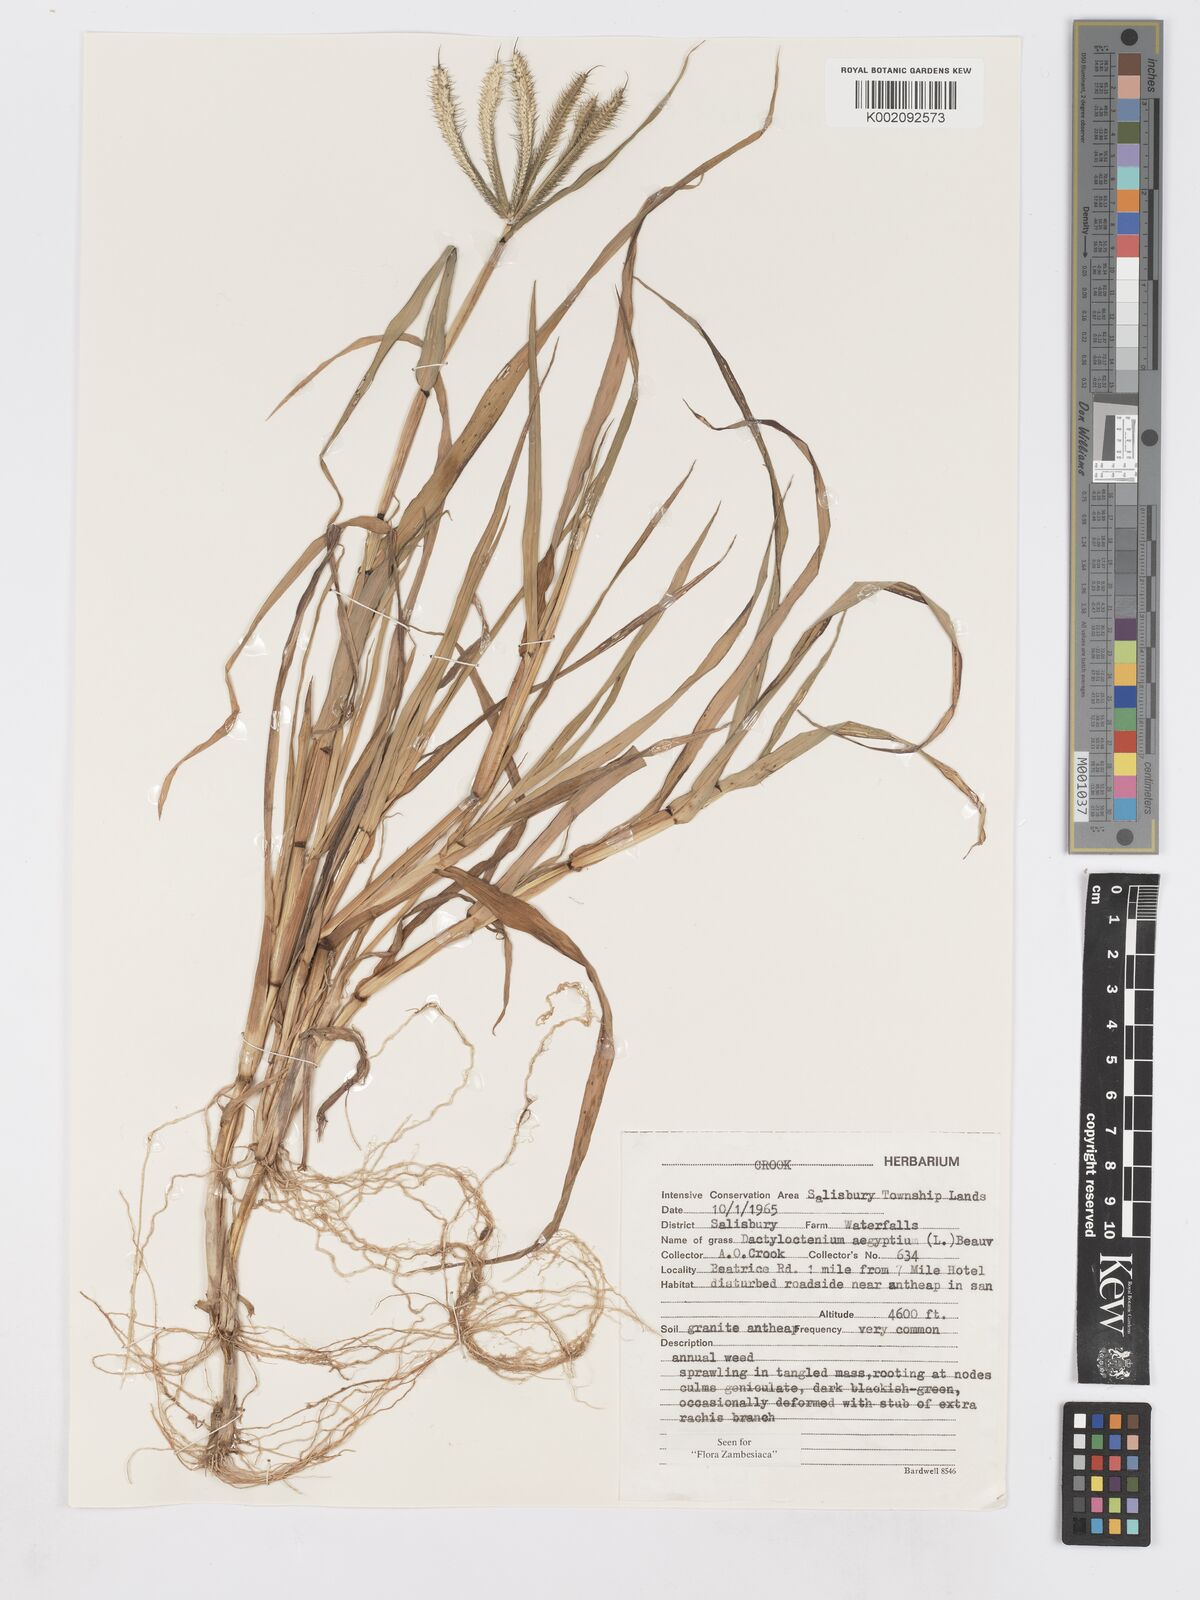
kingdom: Plantae
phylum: Tracheophyta
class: Liliopsida
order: Poales
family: Poaceae
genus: Dactyloctenium
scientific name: Dactyloctenium aegyptium
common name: Egyptian grass
